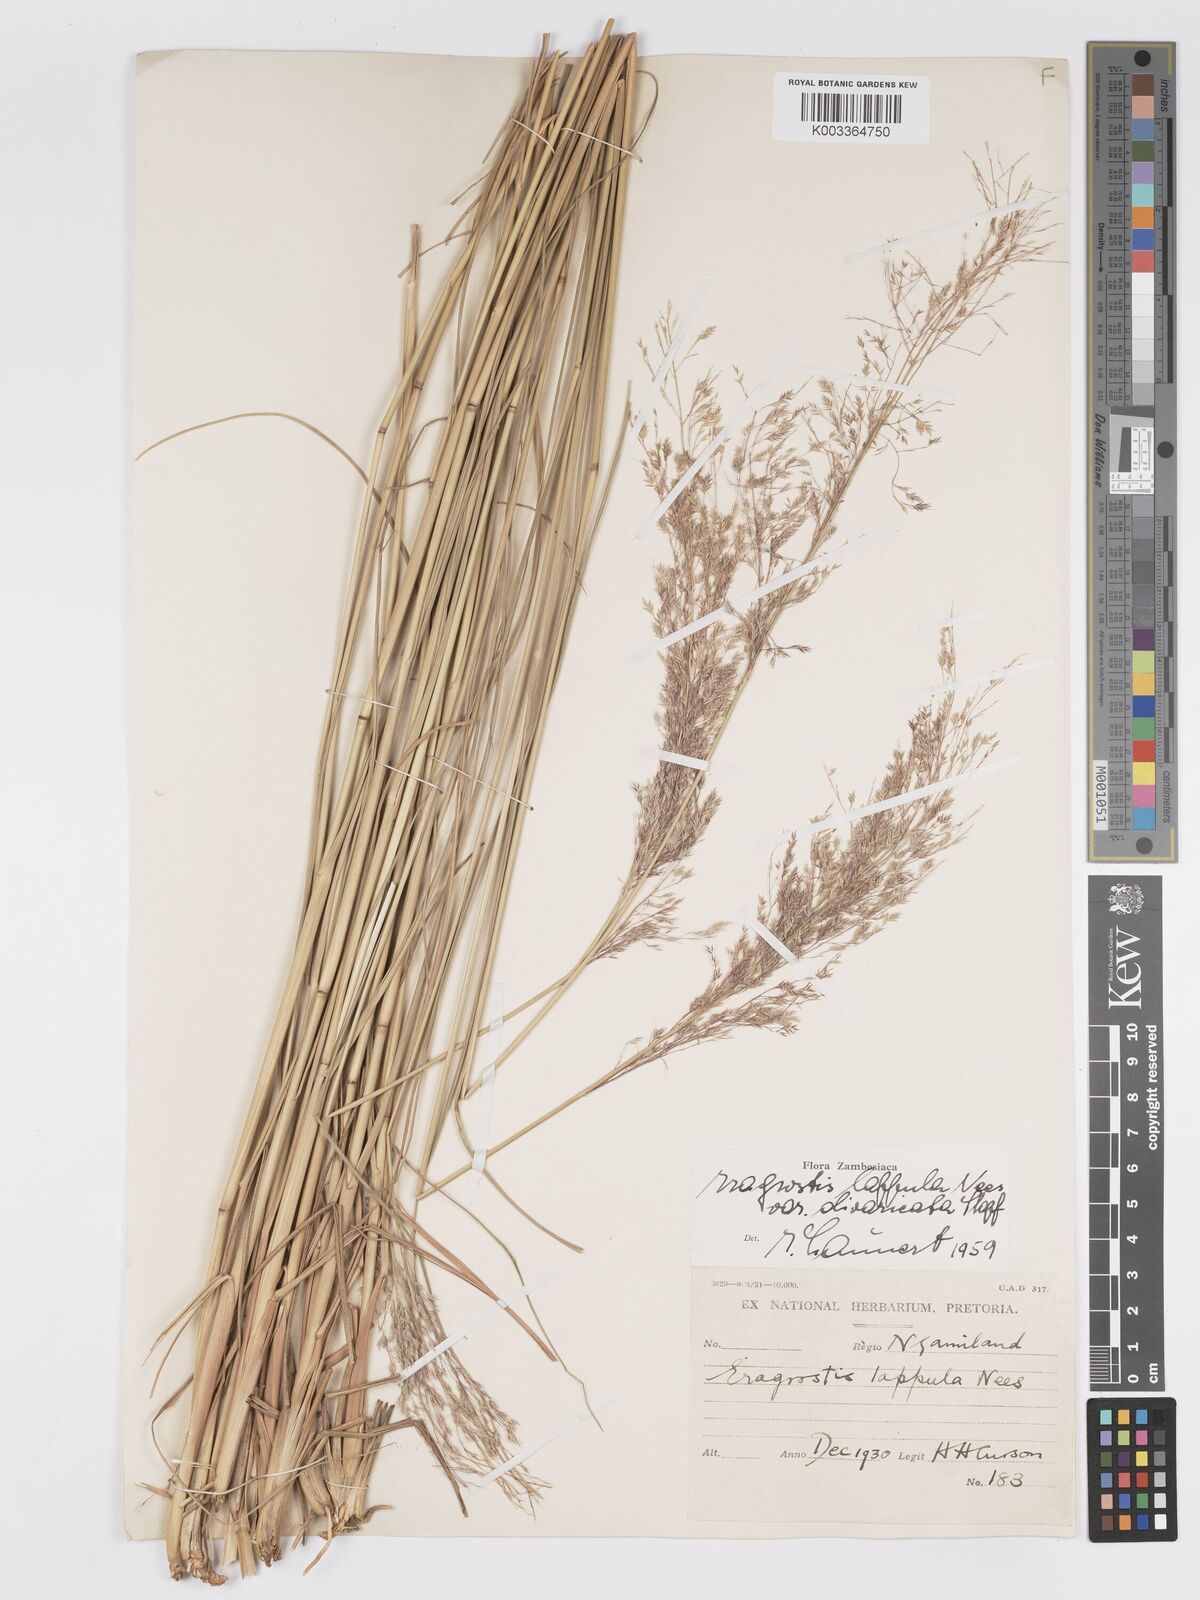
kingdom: Plantae
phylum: Tracheophyta
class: Liliopsida
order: Poales
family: Poaceae
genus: Eragrostis
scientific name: Eragrostis lappula
